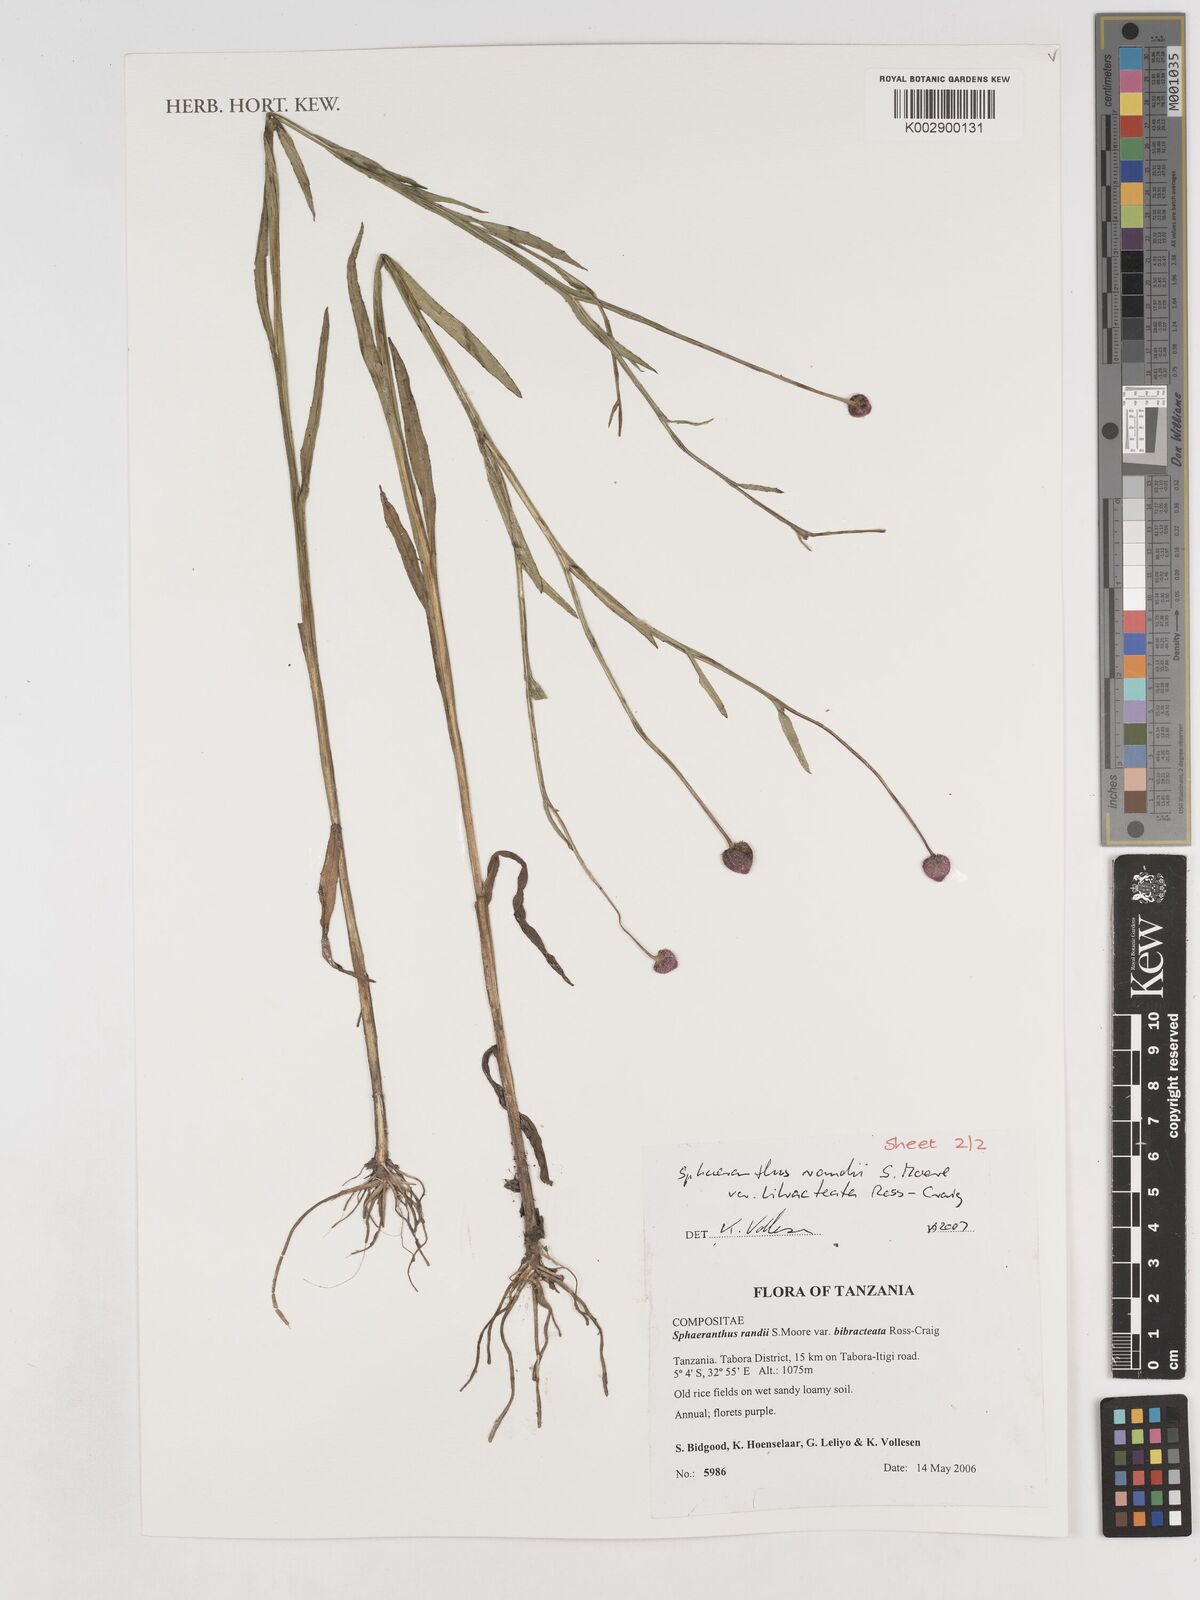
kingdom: Plantae
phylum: Tracheophyta
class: Magnoliopsida
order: Asterales
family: Asteraceae
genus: Sphaeranthus
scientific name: Sphaeranthus randii
